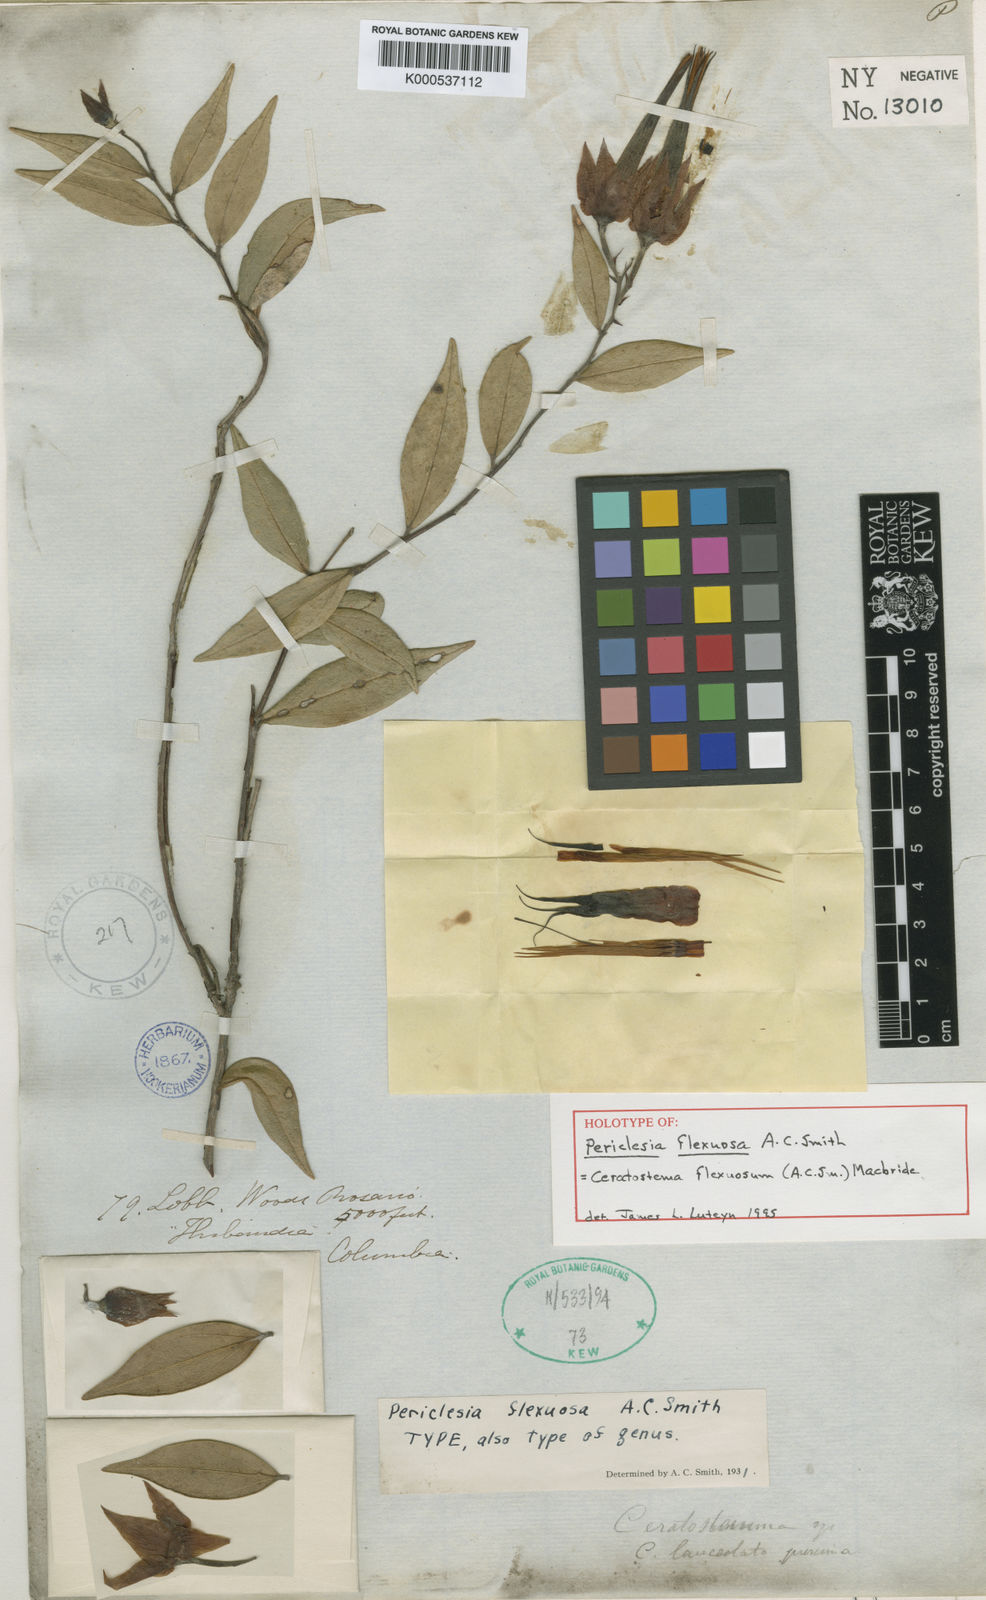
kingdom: Plantae
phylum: Tracheophyta
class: Magnoliopsida
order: Ericales
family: Ericaceae
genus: Ceratostema
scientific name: Ceratostema flexuosum
